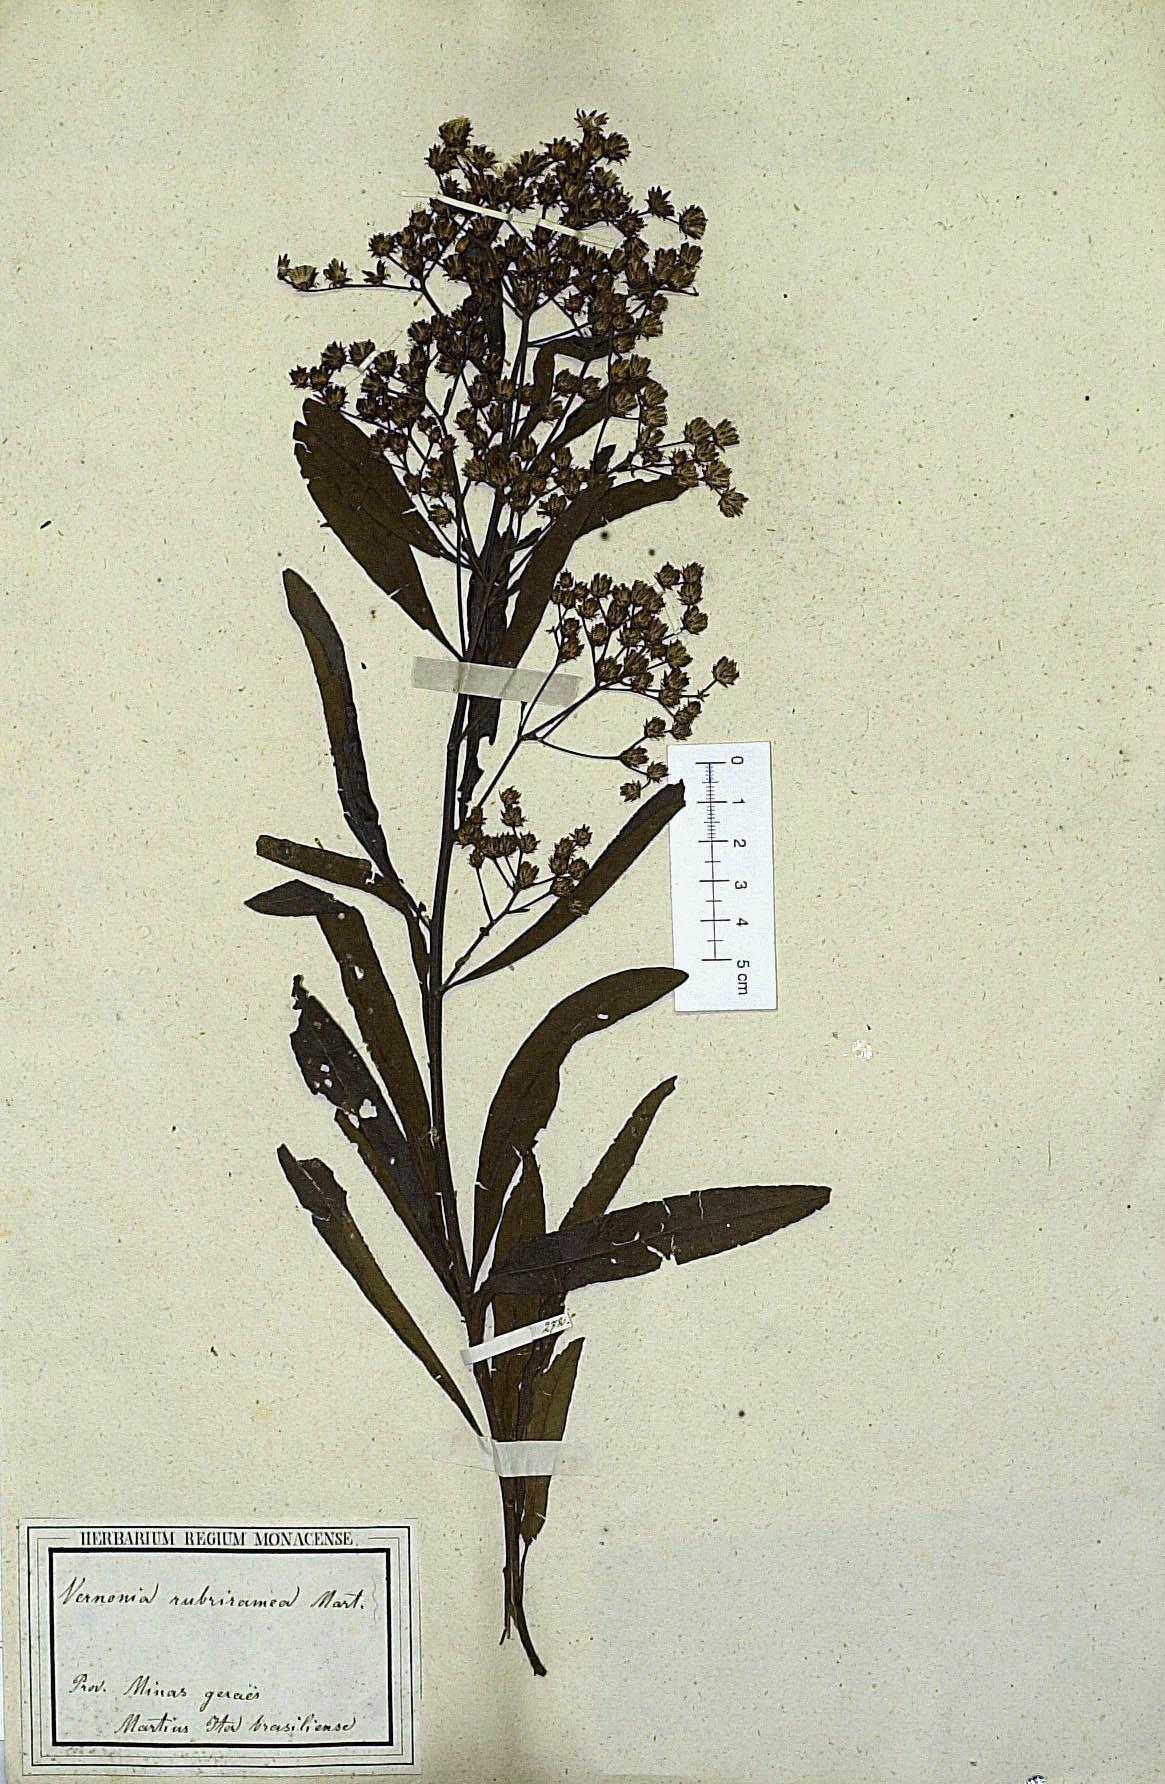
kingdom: Plantae
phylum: Tracheophyta
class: Magnoliopsida
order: Asterales
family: Asteraceae
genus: Vernonanthura
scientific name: Vernonanthura rubriramea
